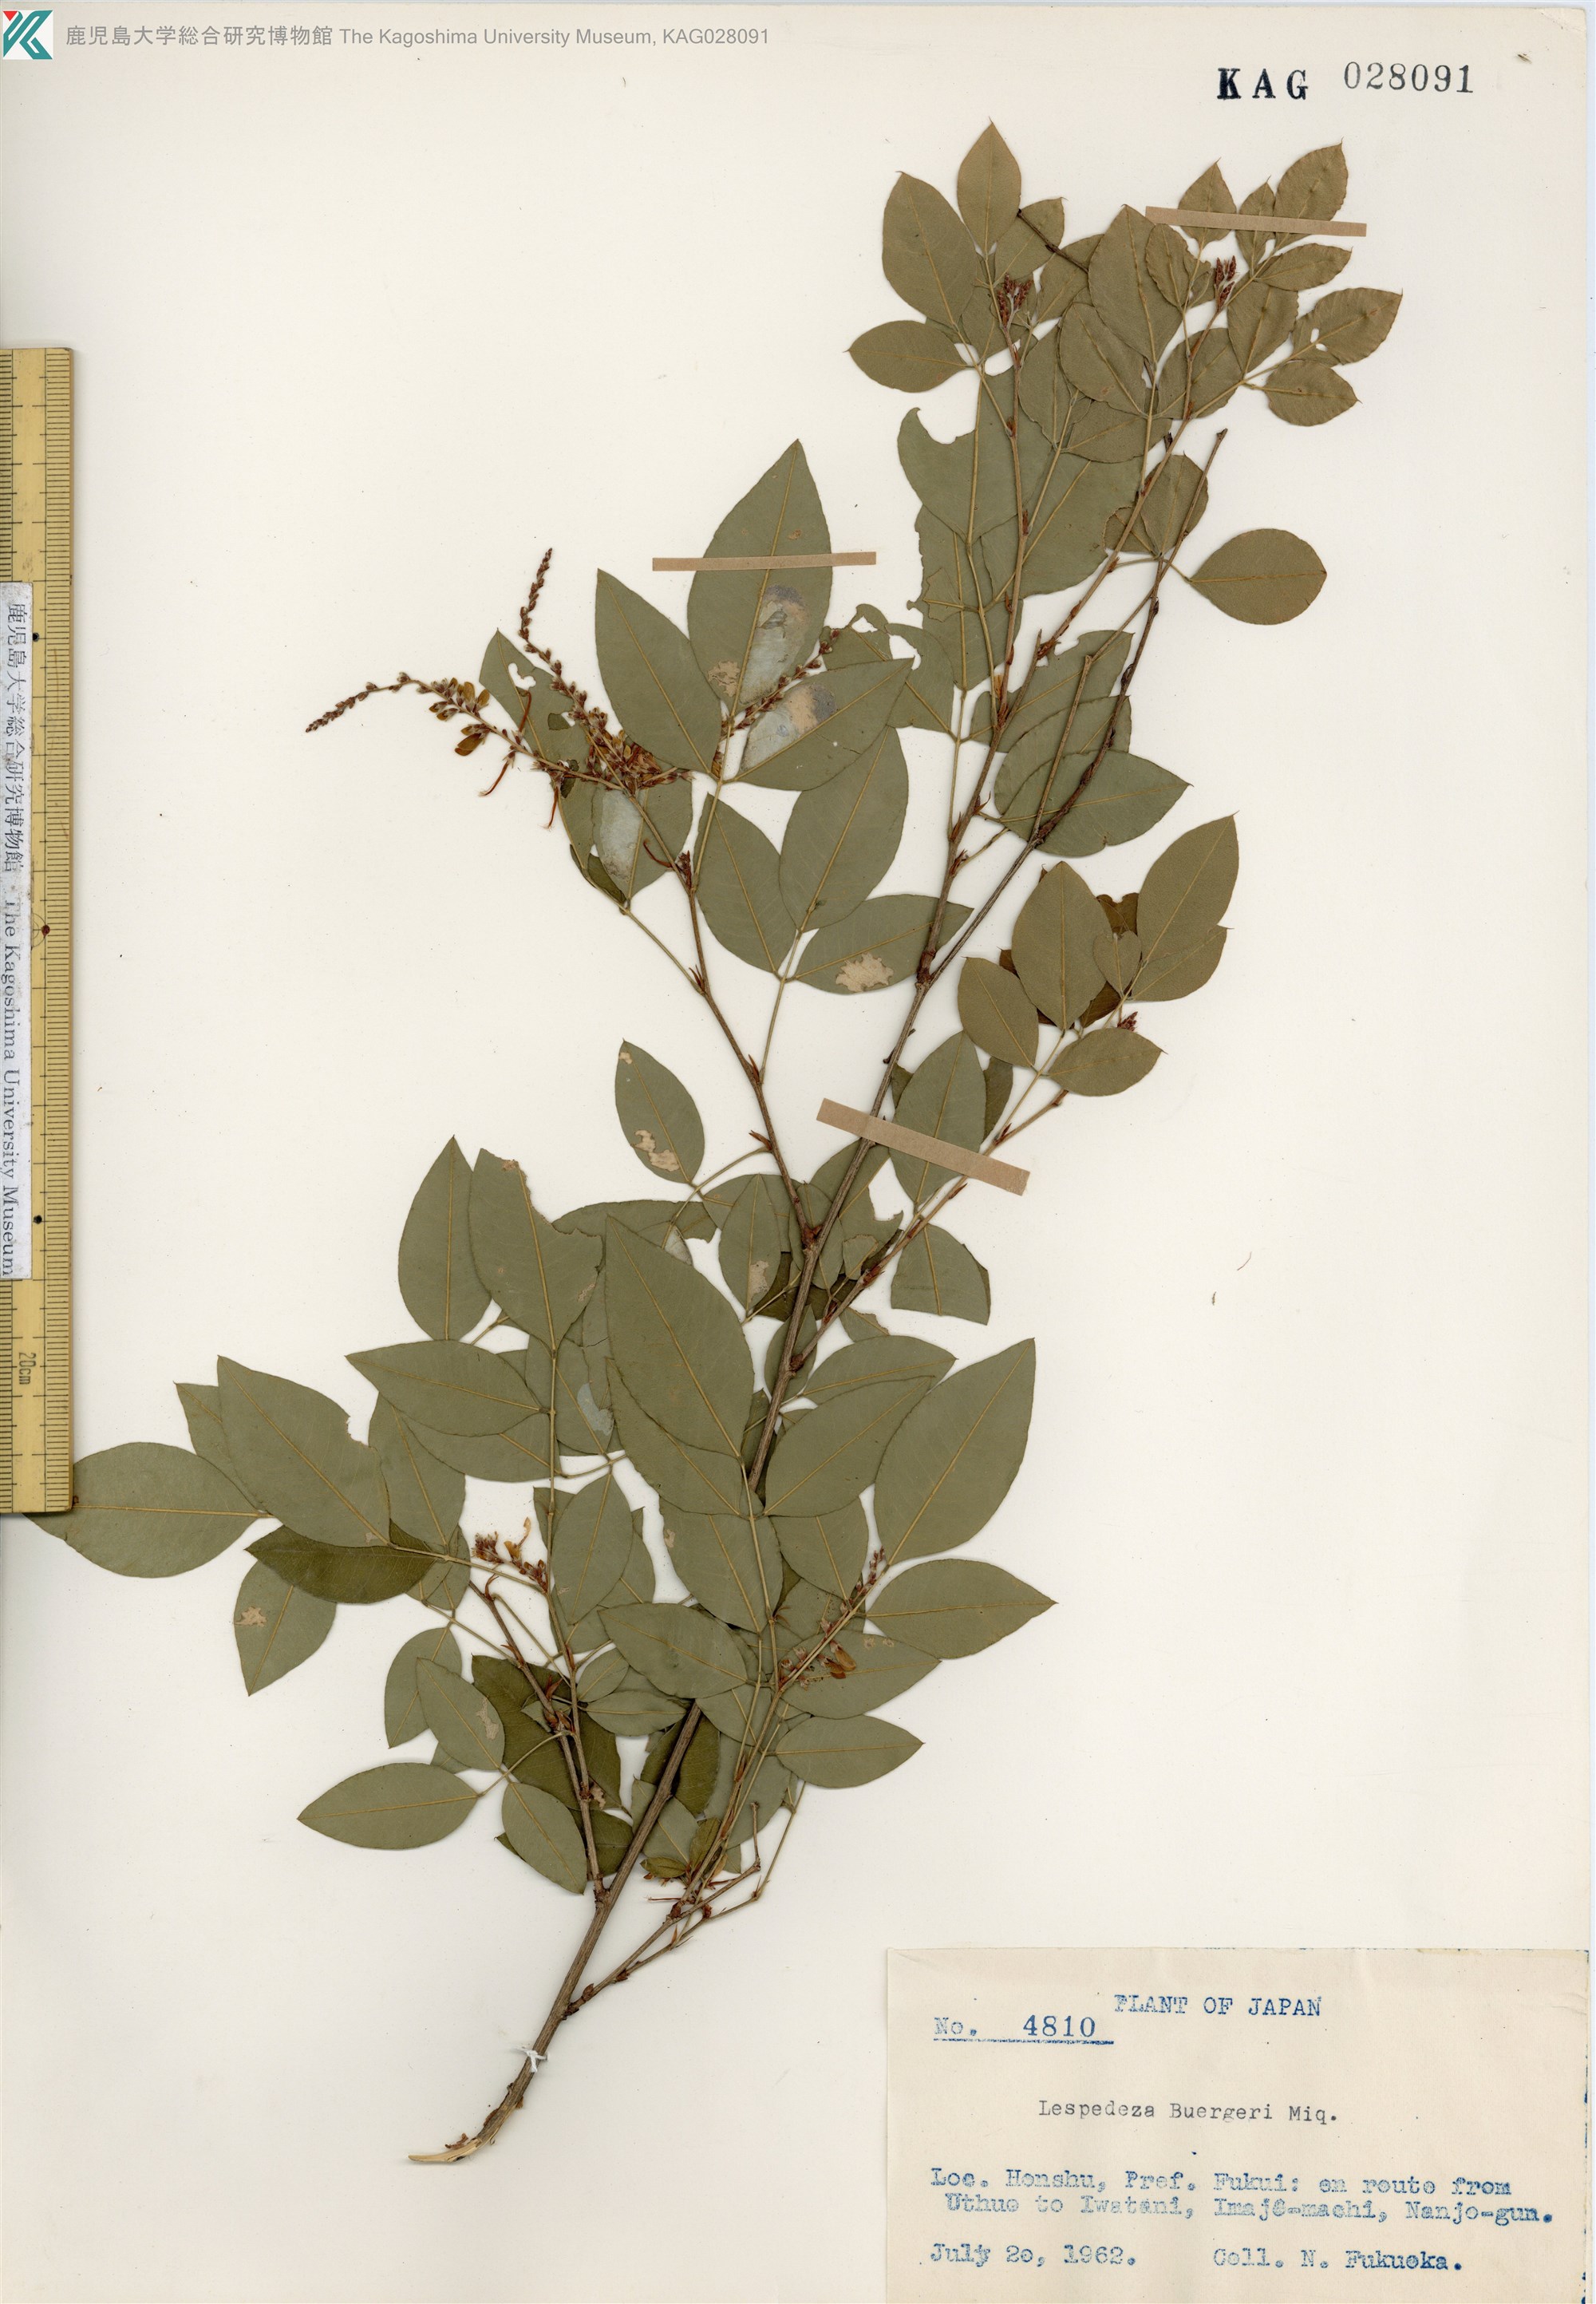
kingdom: Plantae
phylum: Tracheophyta
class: Magnoliopsida
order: Fabales
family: Fabaceae
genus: Lespedeza
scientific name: Lespedeza buergeri
